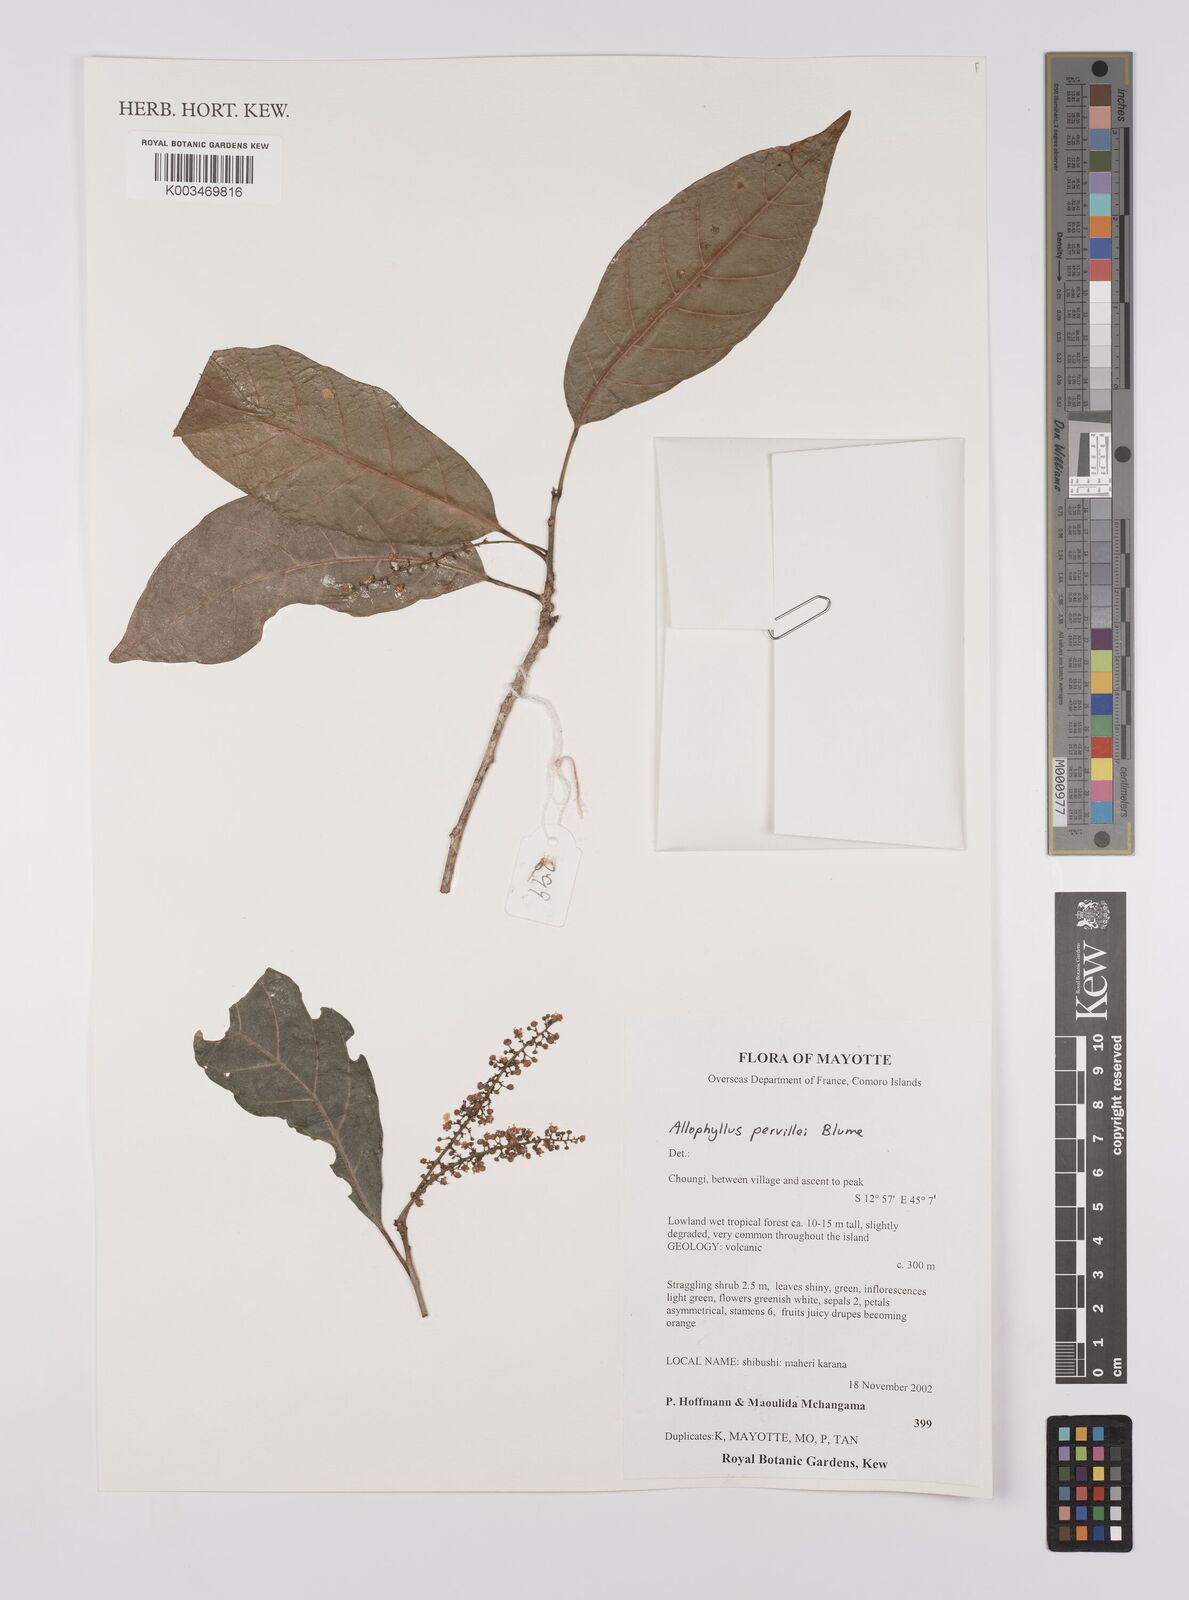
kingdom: Plantae
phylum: Tracheophyta
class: Magnoliopsida
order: Sapindales
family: Sapindaceae
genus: Allophylus
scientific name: Allophylus pervillei
